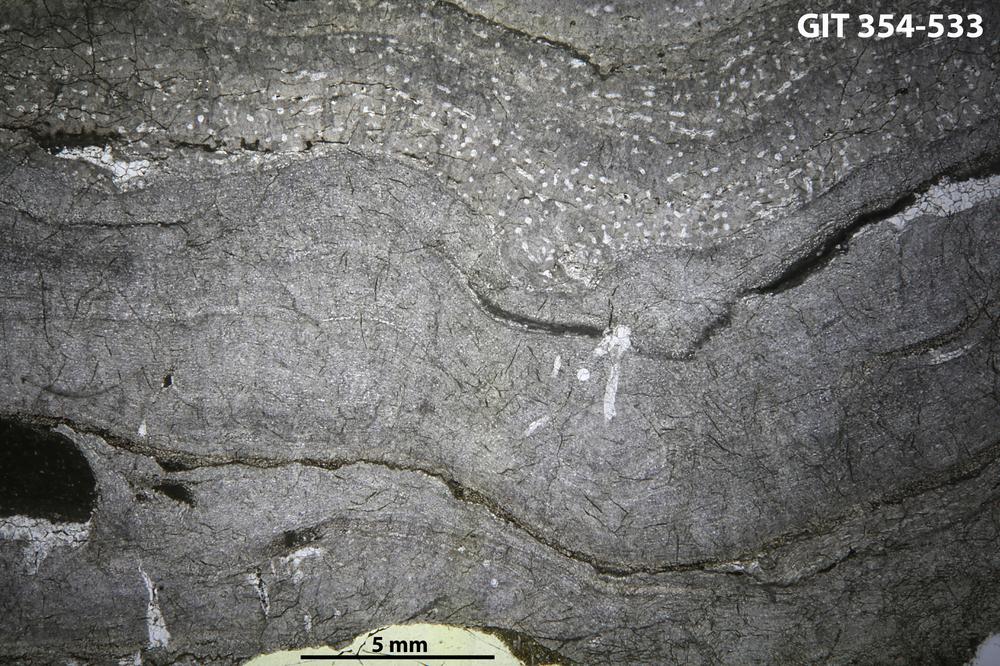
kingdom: Animalia
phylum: Porifera
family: Clathrodictyidae
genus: Clathrodictyon
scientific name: Clathrodictyon delicatulum
